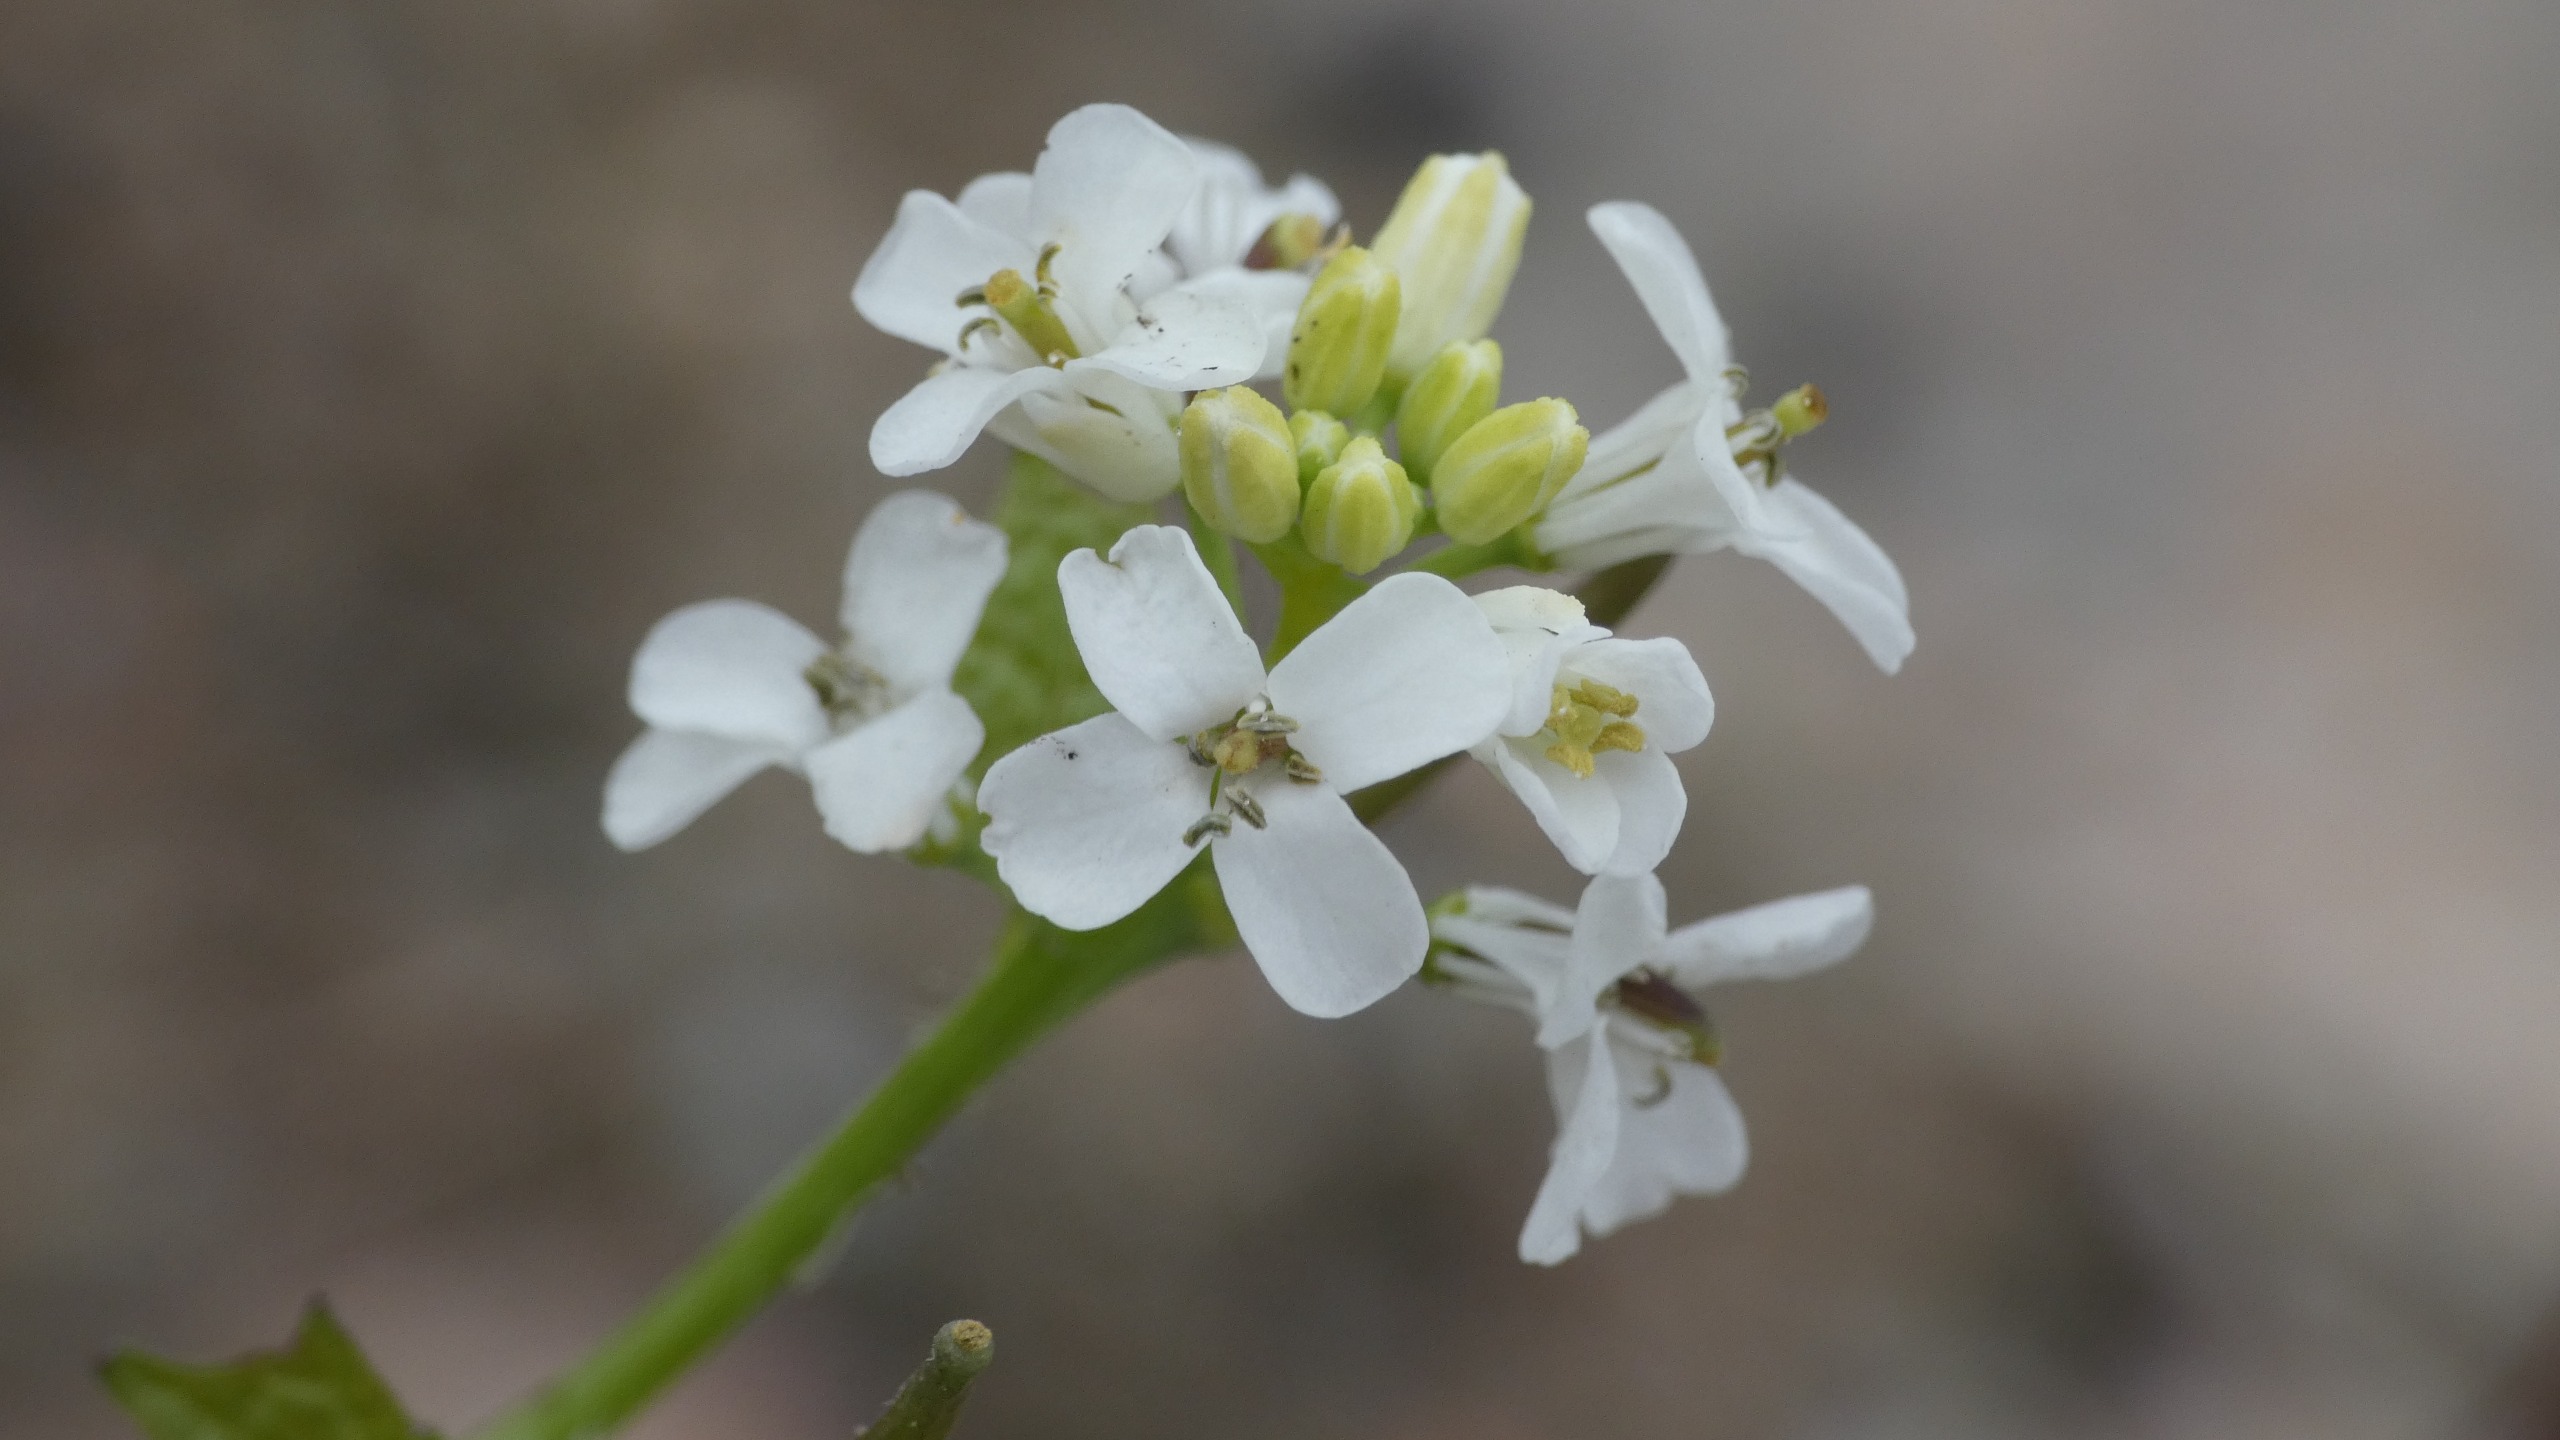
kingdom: Plantae
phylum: Tracheophyta
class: Magnoliopsida
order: Brassicales
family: Brassicaceae
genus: Alliaria
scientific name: Alliaria petiolata
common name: Løgkarse
